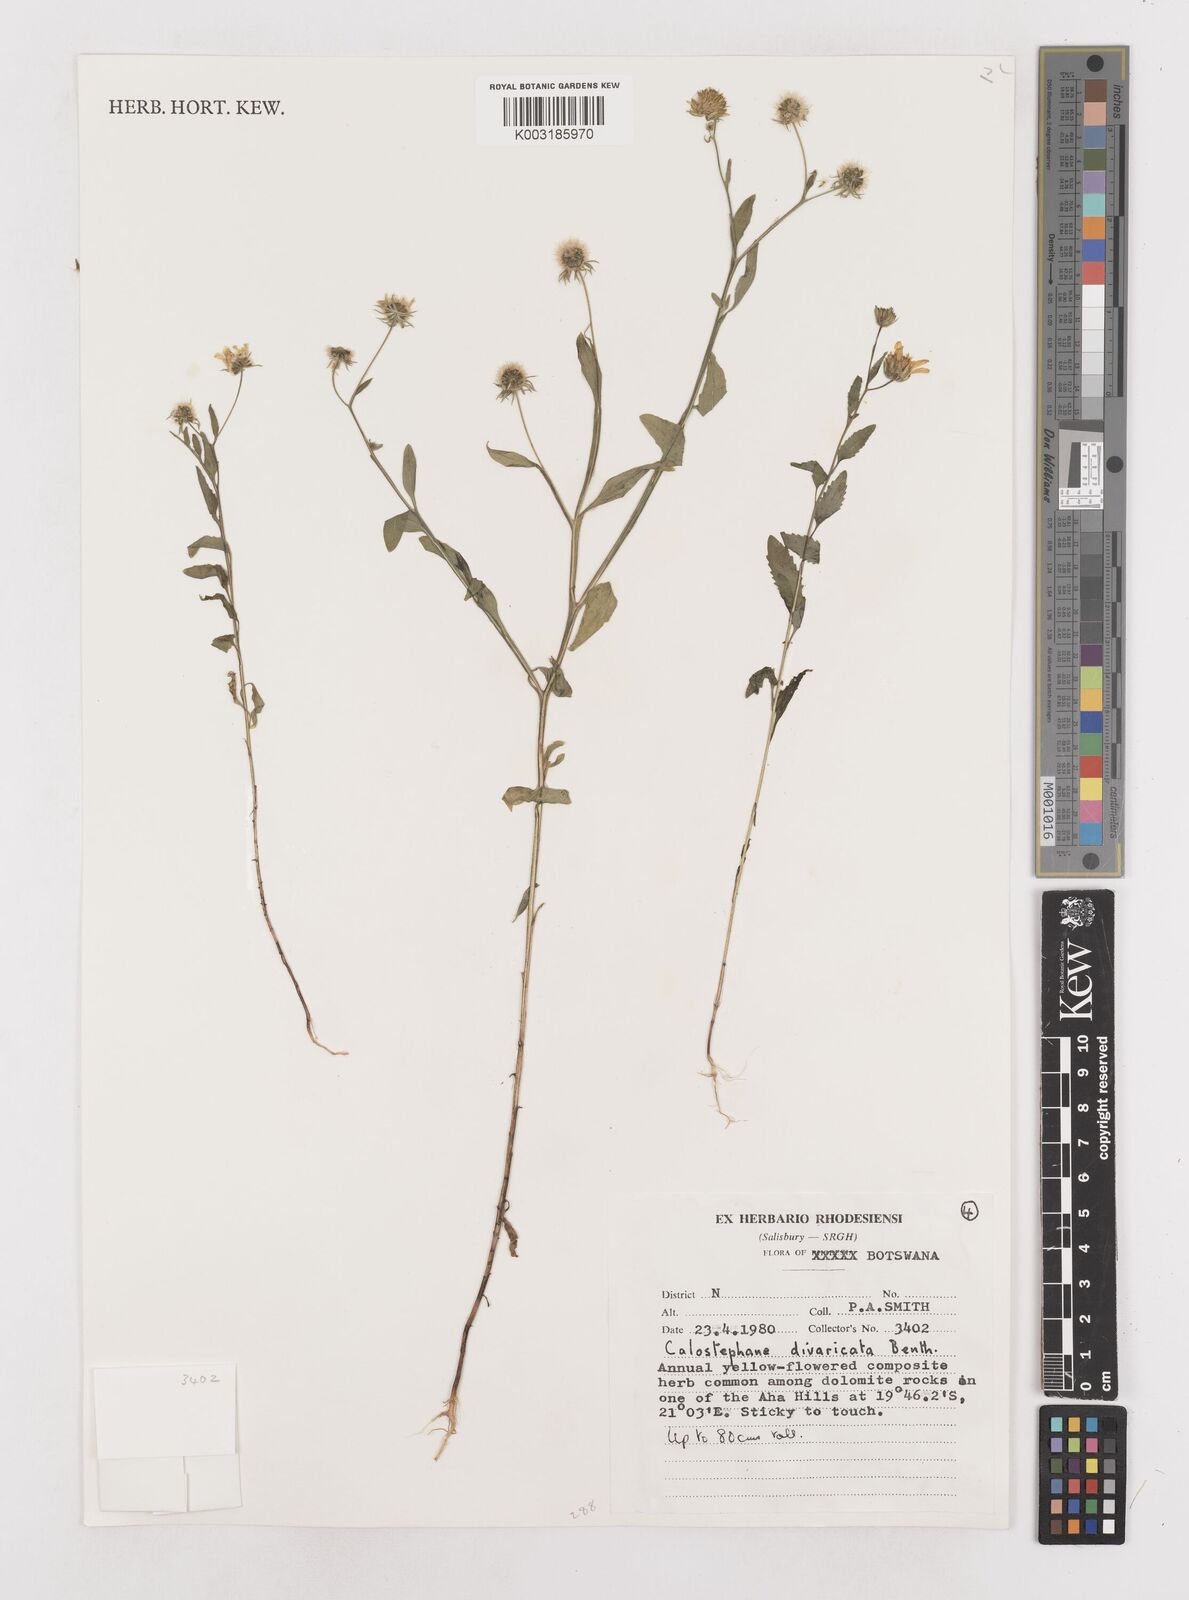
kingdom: Plantae
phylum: Tracheophyta
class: Magnoliopsida
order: Asterales
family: Asteraceae
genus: Calostephane
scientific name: Calostephane divaricata
